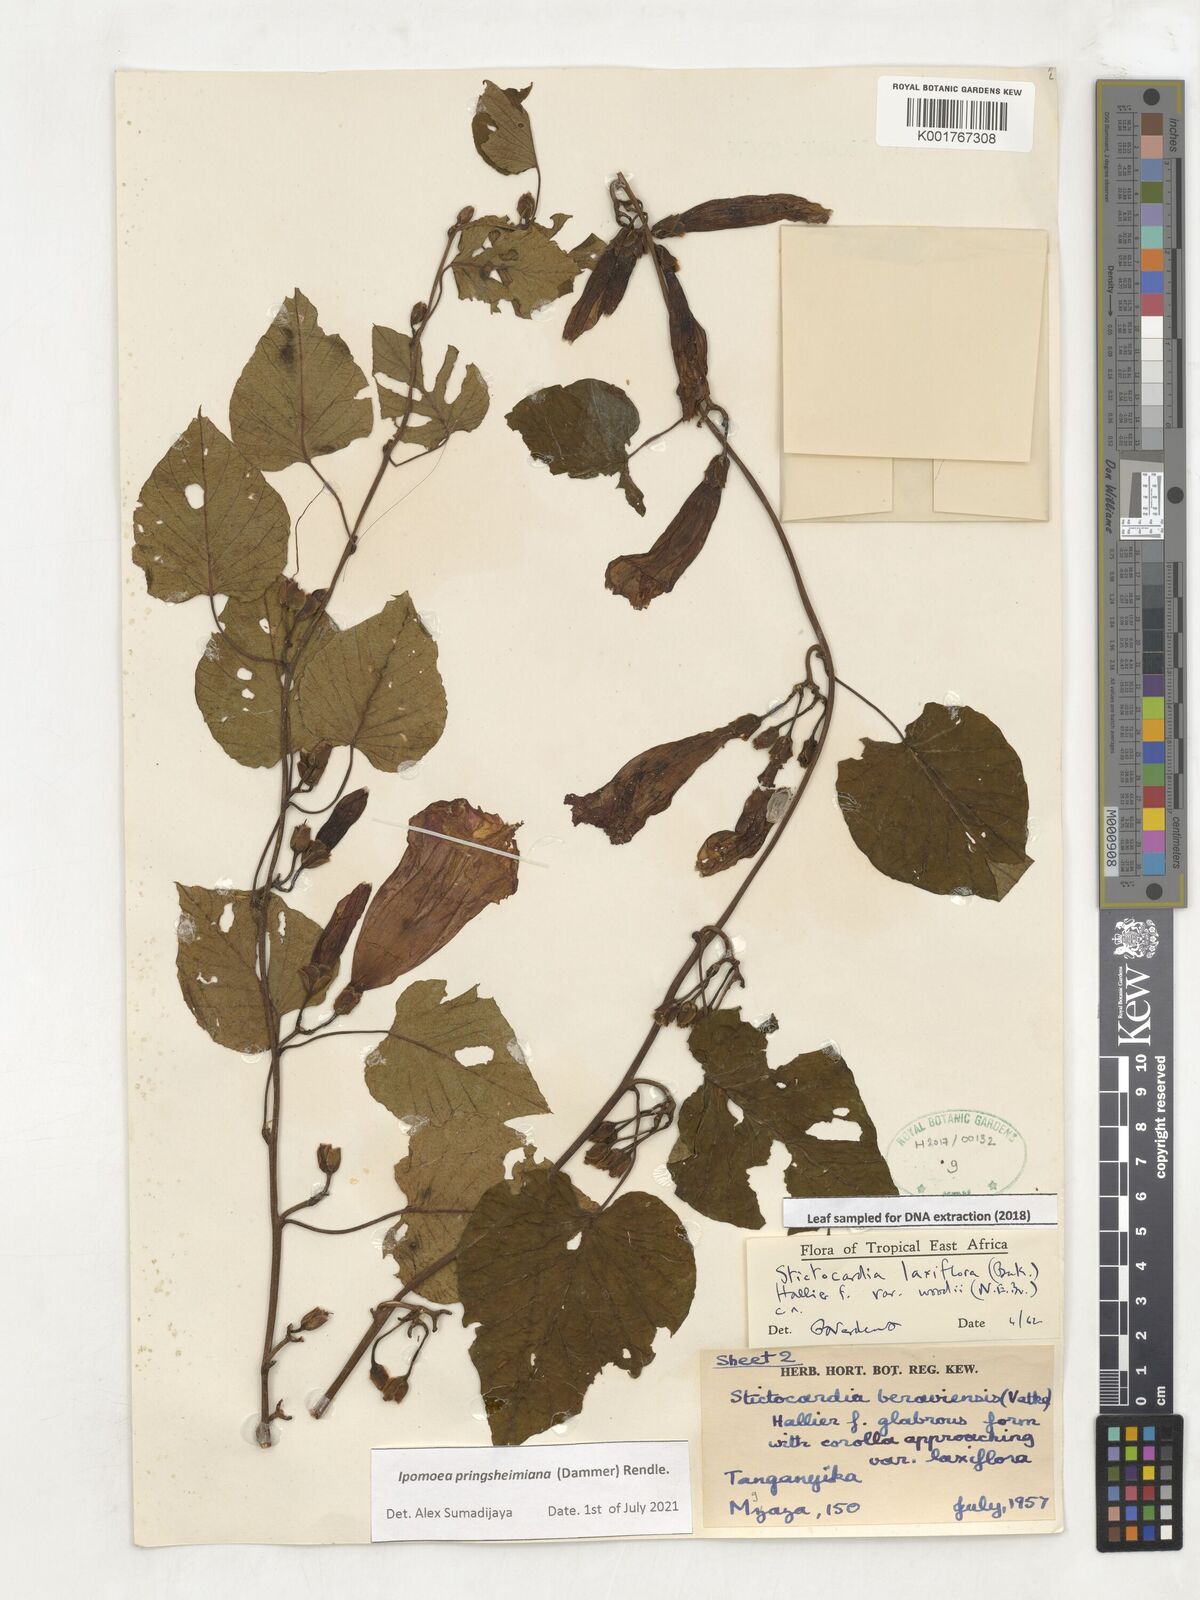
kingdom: Plantae
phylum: Tracheophyta
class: Magnoliopsida
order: Solanales
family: Convolvulaceae
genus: Stictocardia
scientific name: Stictocardia laxiflora
